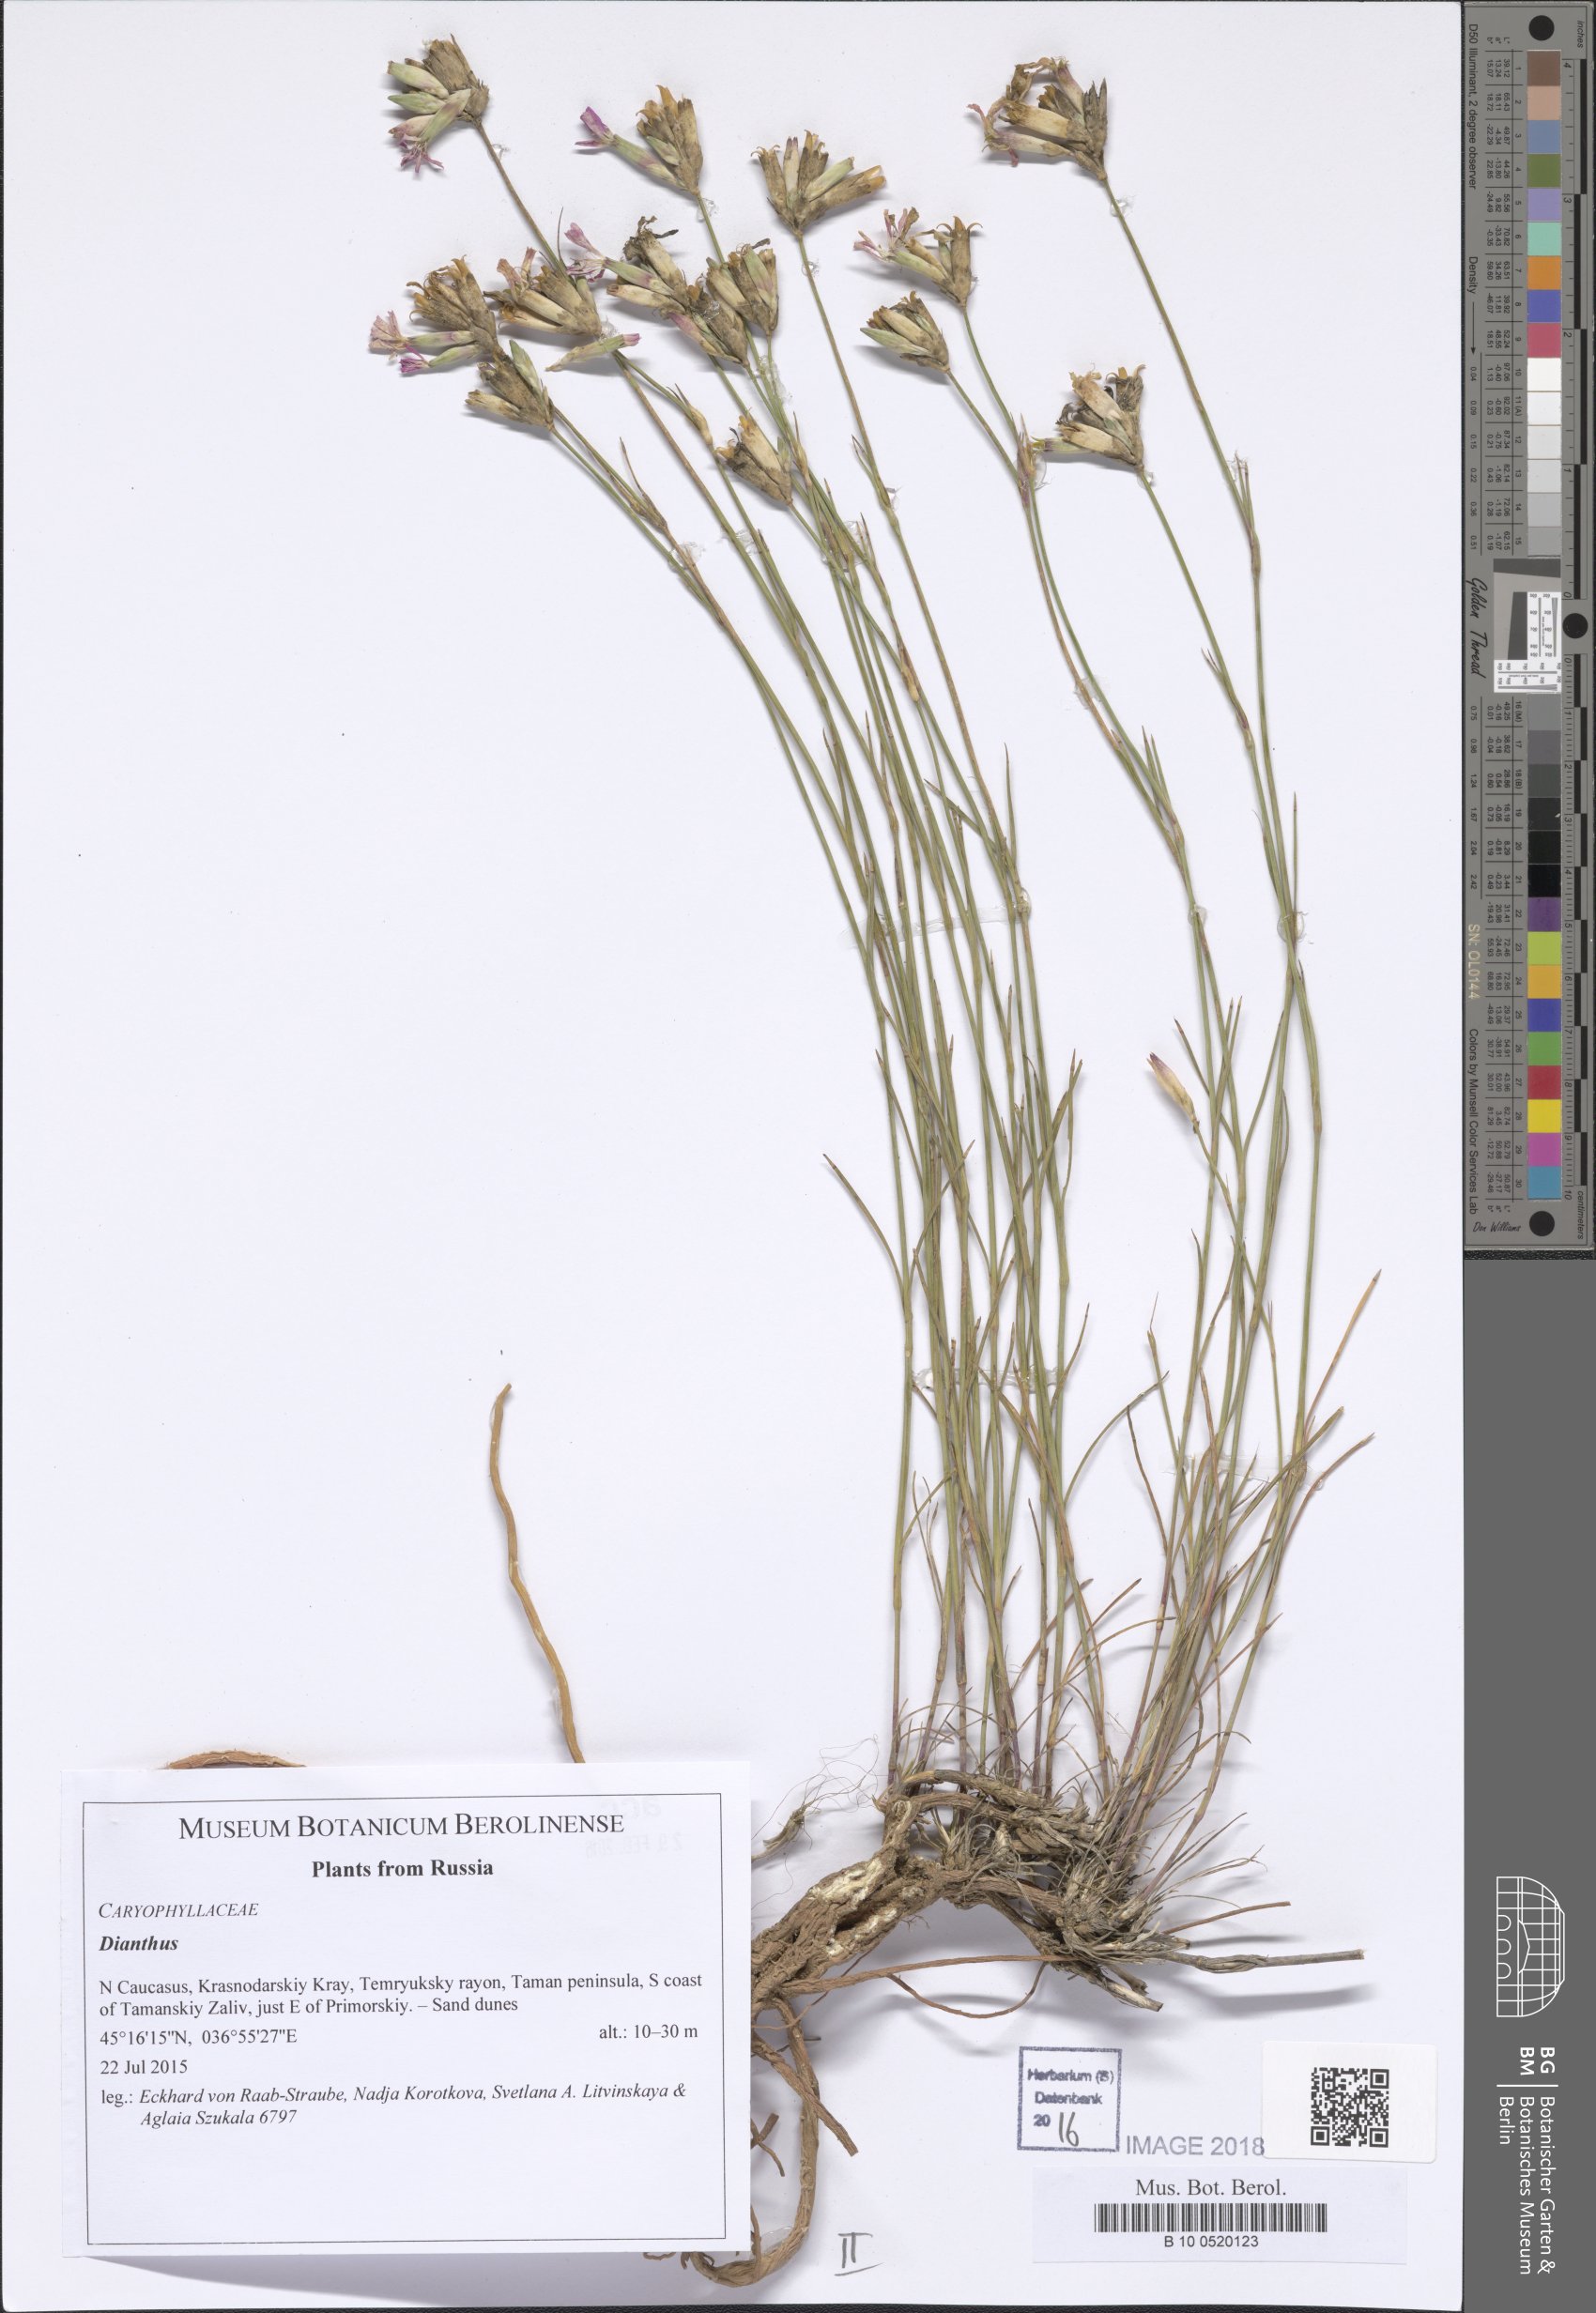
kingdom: Plantae
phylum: Tracheophyta
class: Magnoliopsida
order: Caryophyllales
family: Caryophyllaceae
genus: Dianthus
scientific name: Dianthus
